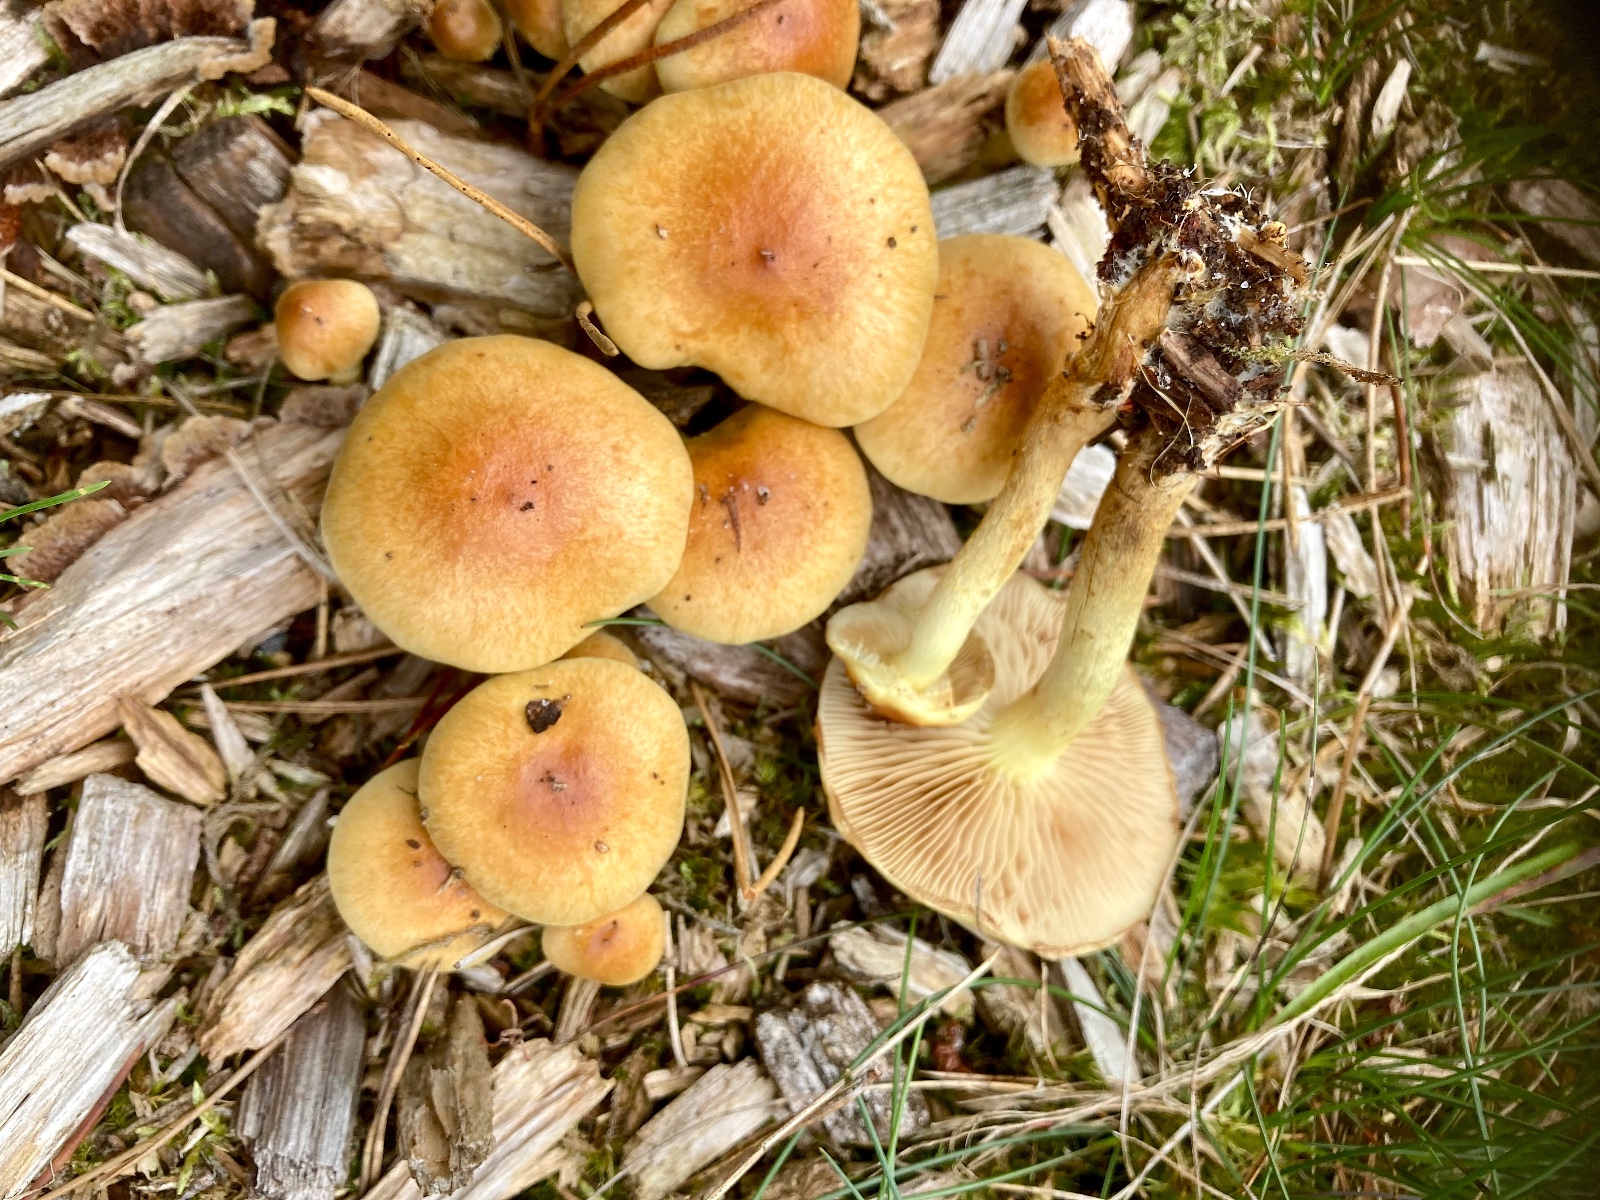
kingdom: Fungi
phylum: Basidiomycota
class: Agaricomycetes
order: Agaricales
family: Strophariaceae
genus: Hypholoma
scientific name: Hypholoma fasciculare
